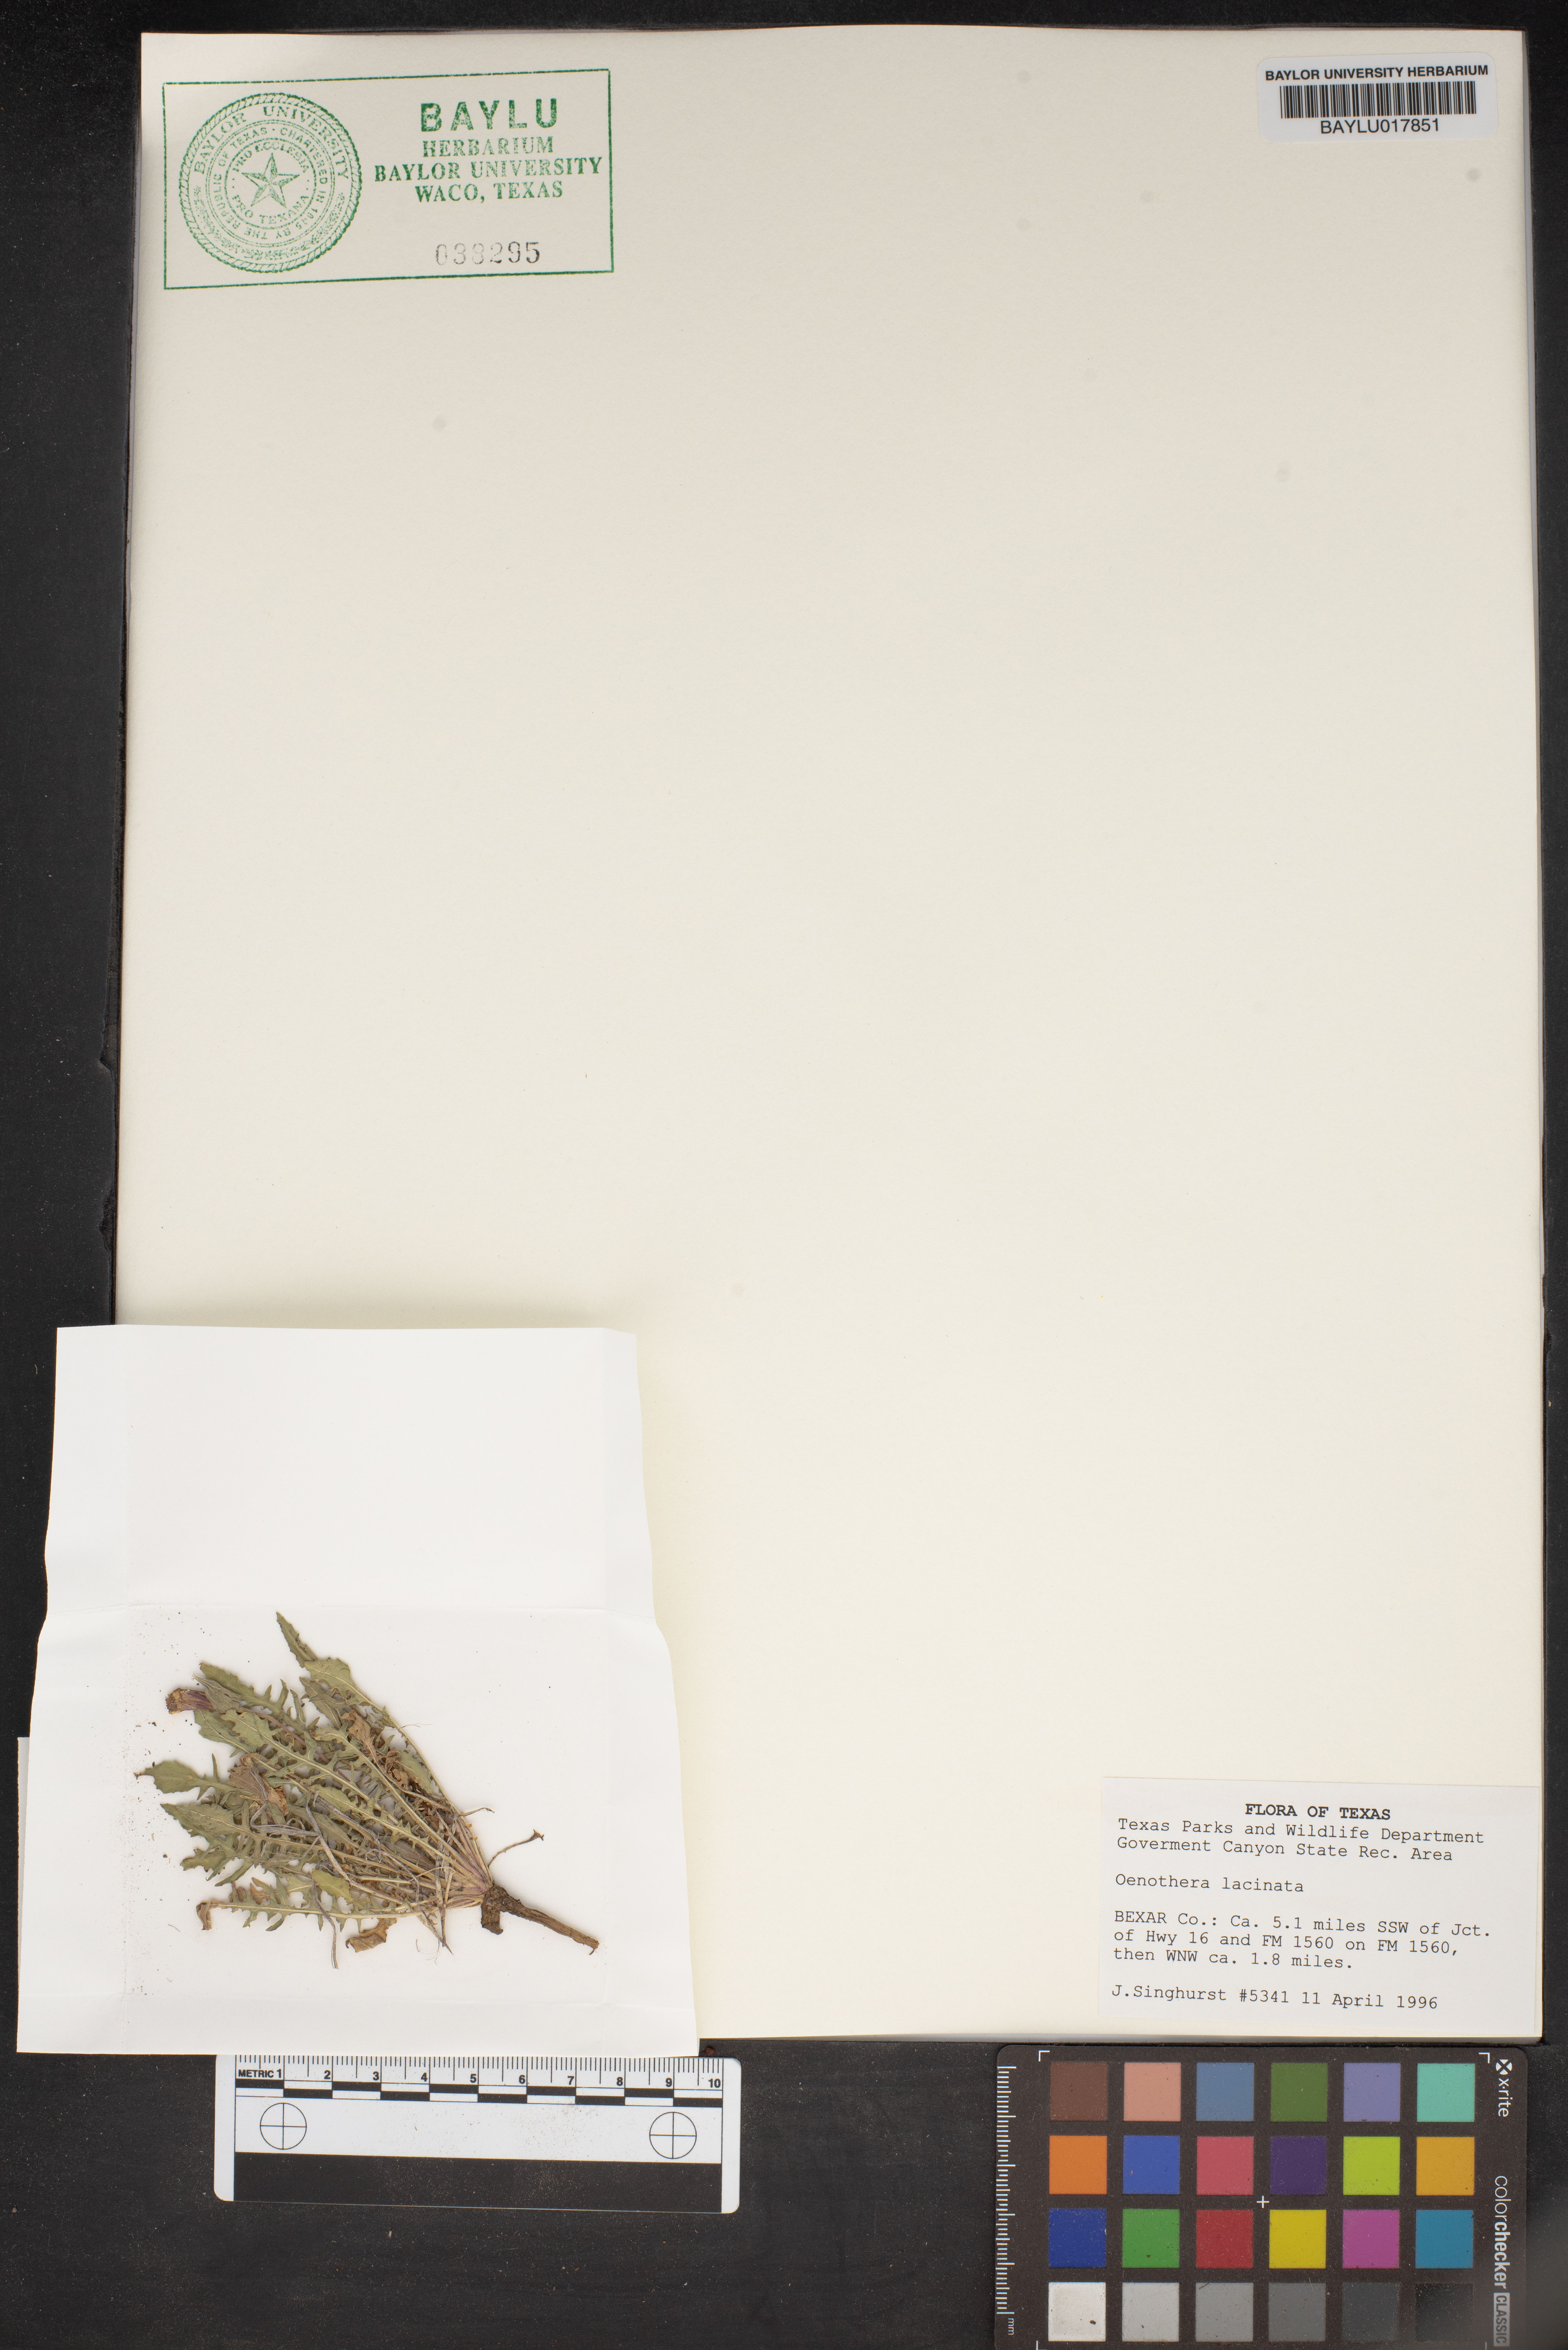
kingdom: Plantae
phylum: Tracheophyta
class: Magnoliopsida
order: Myrtales
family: Onagraceae
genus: Oenothera
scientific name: Oenothera laciniata
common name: Cut-leaved evening-primrose
